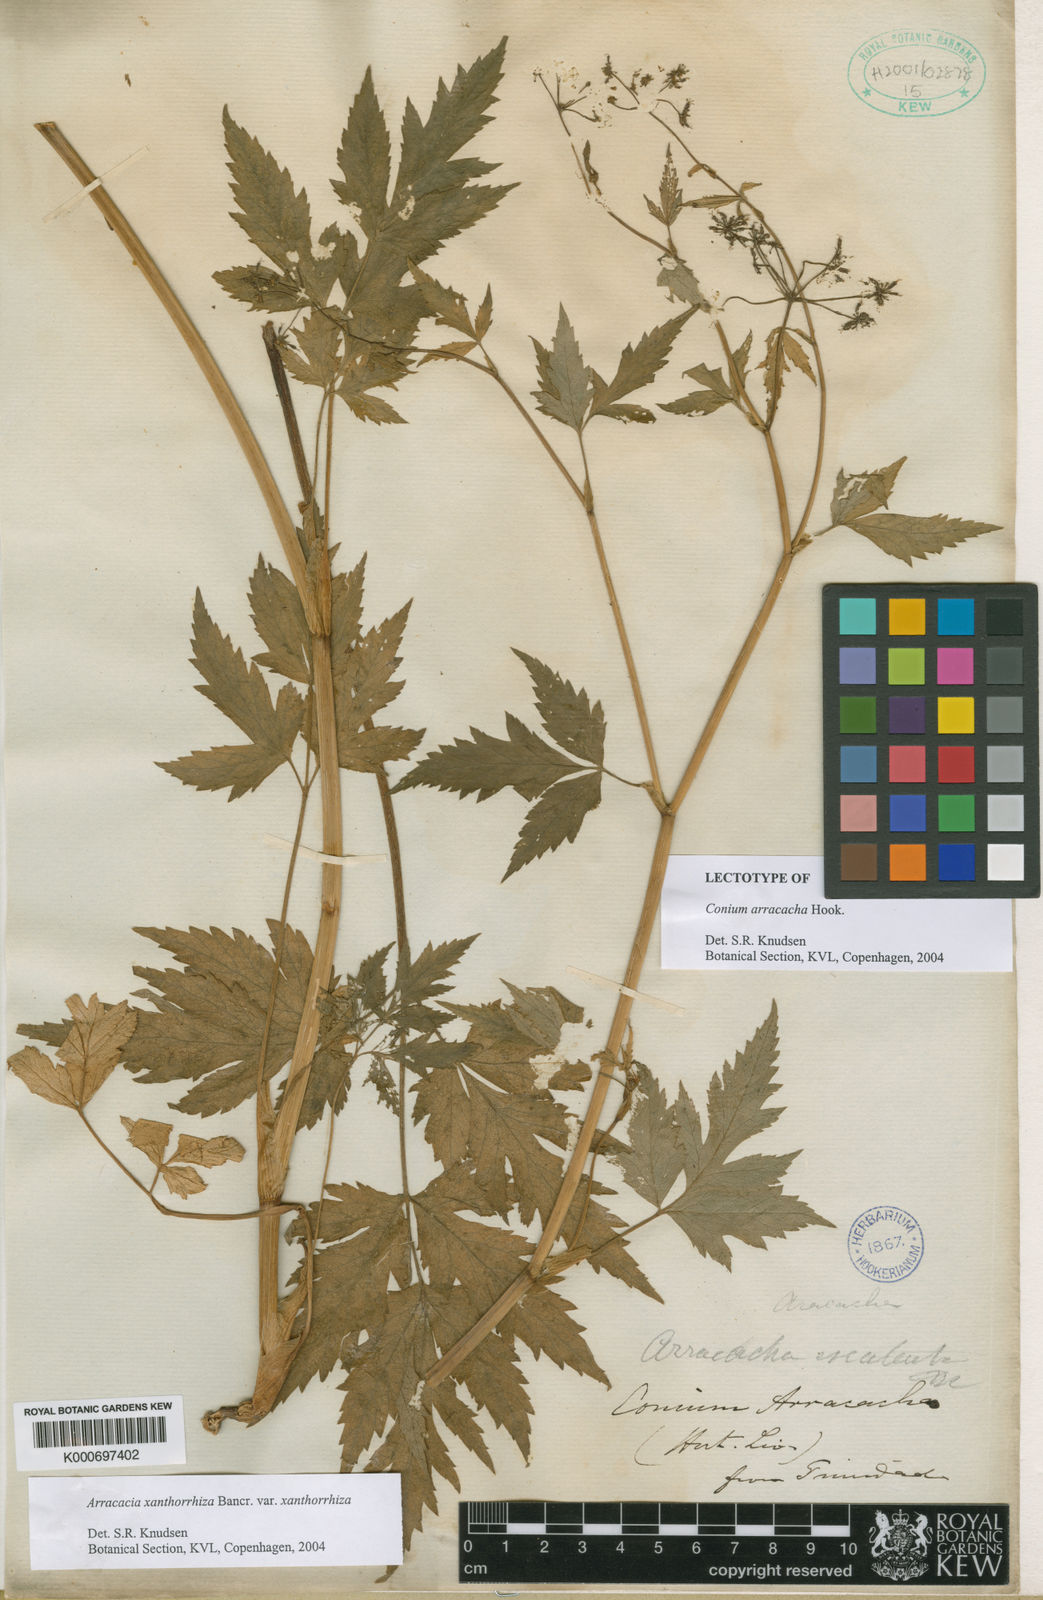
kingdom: Plantae
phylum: Tracheophyta
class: Magnoliopsida
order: Apiales
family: Apiaceae
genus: Arracacia
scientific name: Arracacia xanthorrhiza
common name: Peruvian-carrot
